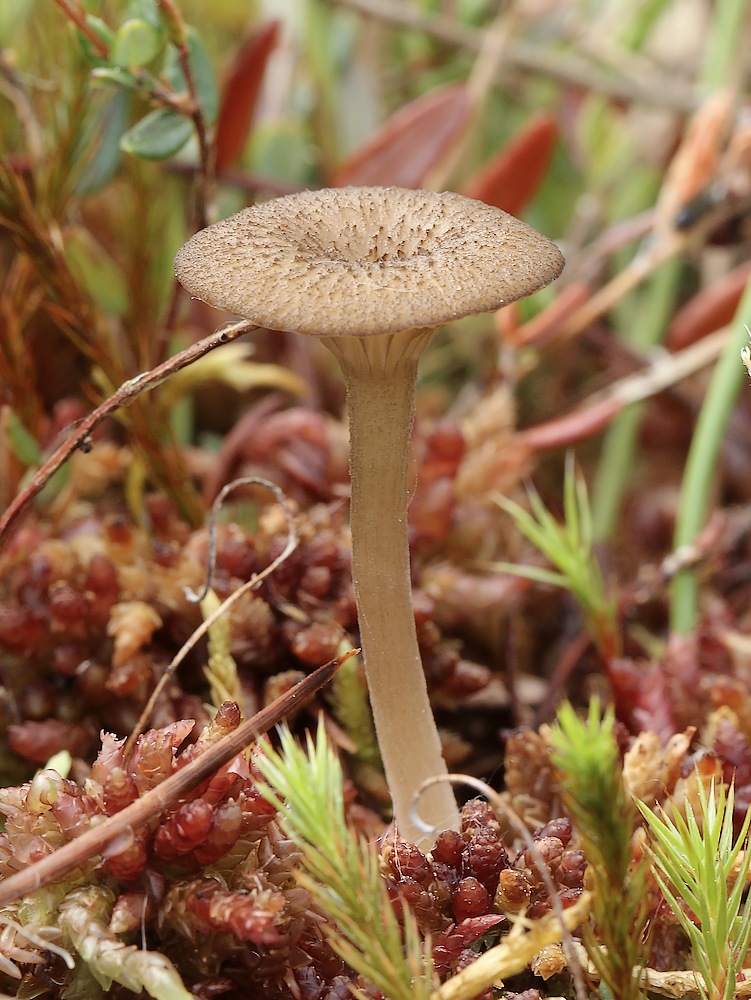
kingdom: Fungi
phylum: Basidiomycota
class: Agaricomycetes
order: Agaricales
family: Hygrophoraceae
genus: Arrhenia
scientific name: Arrhenia gerardiana
